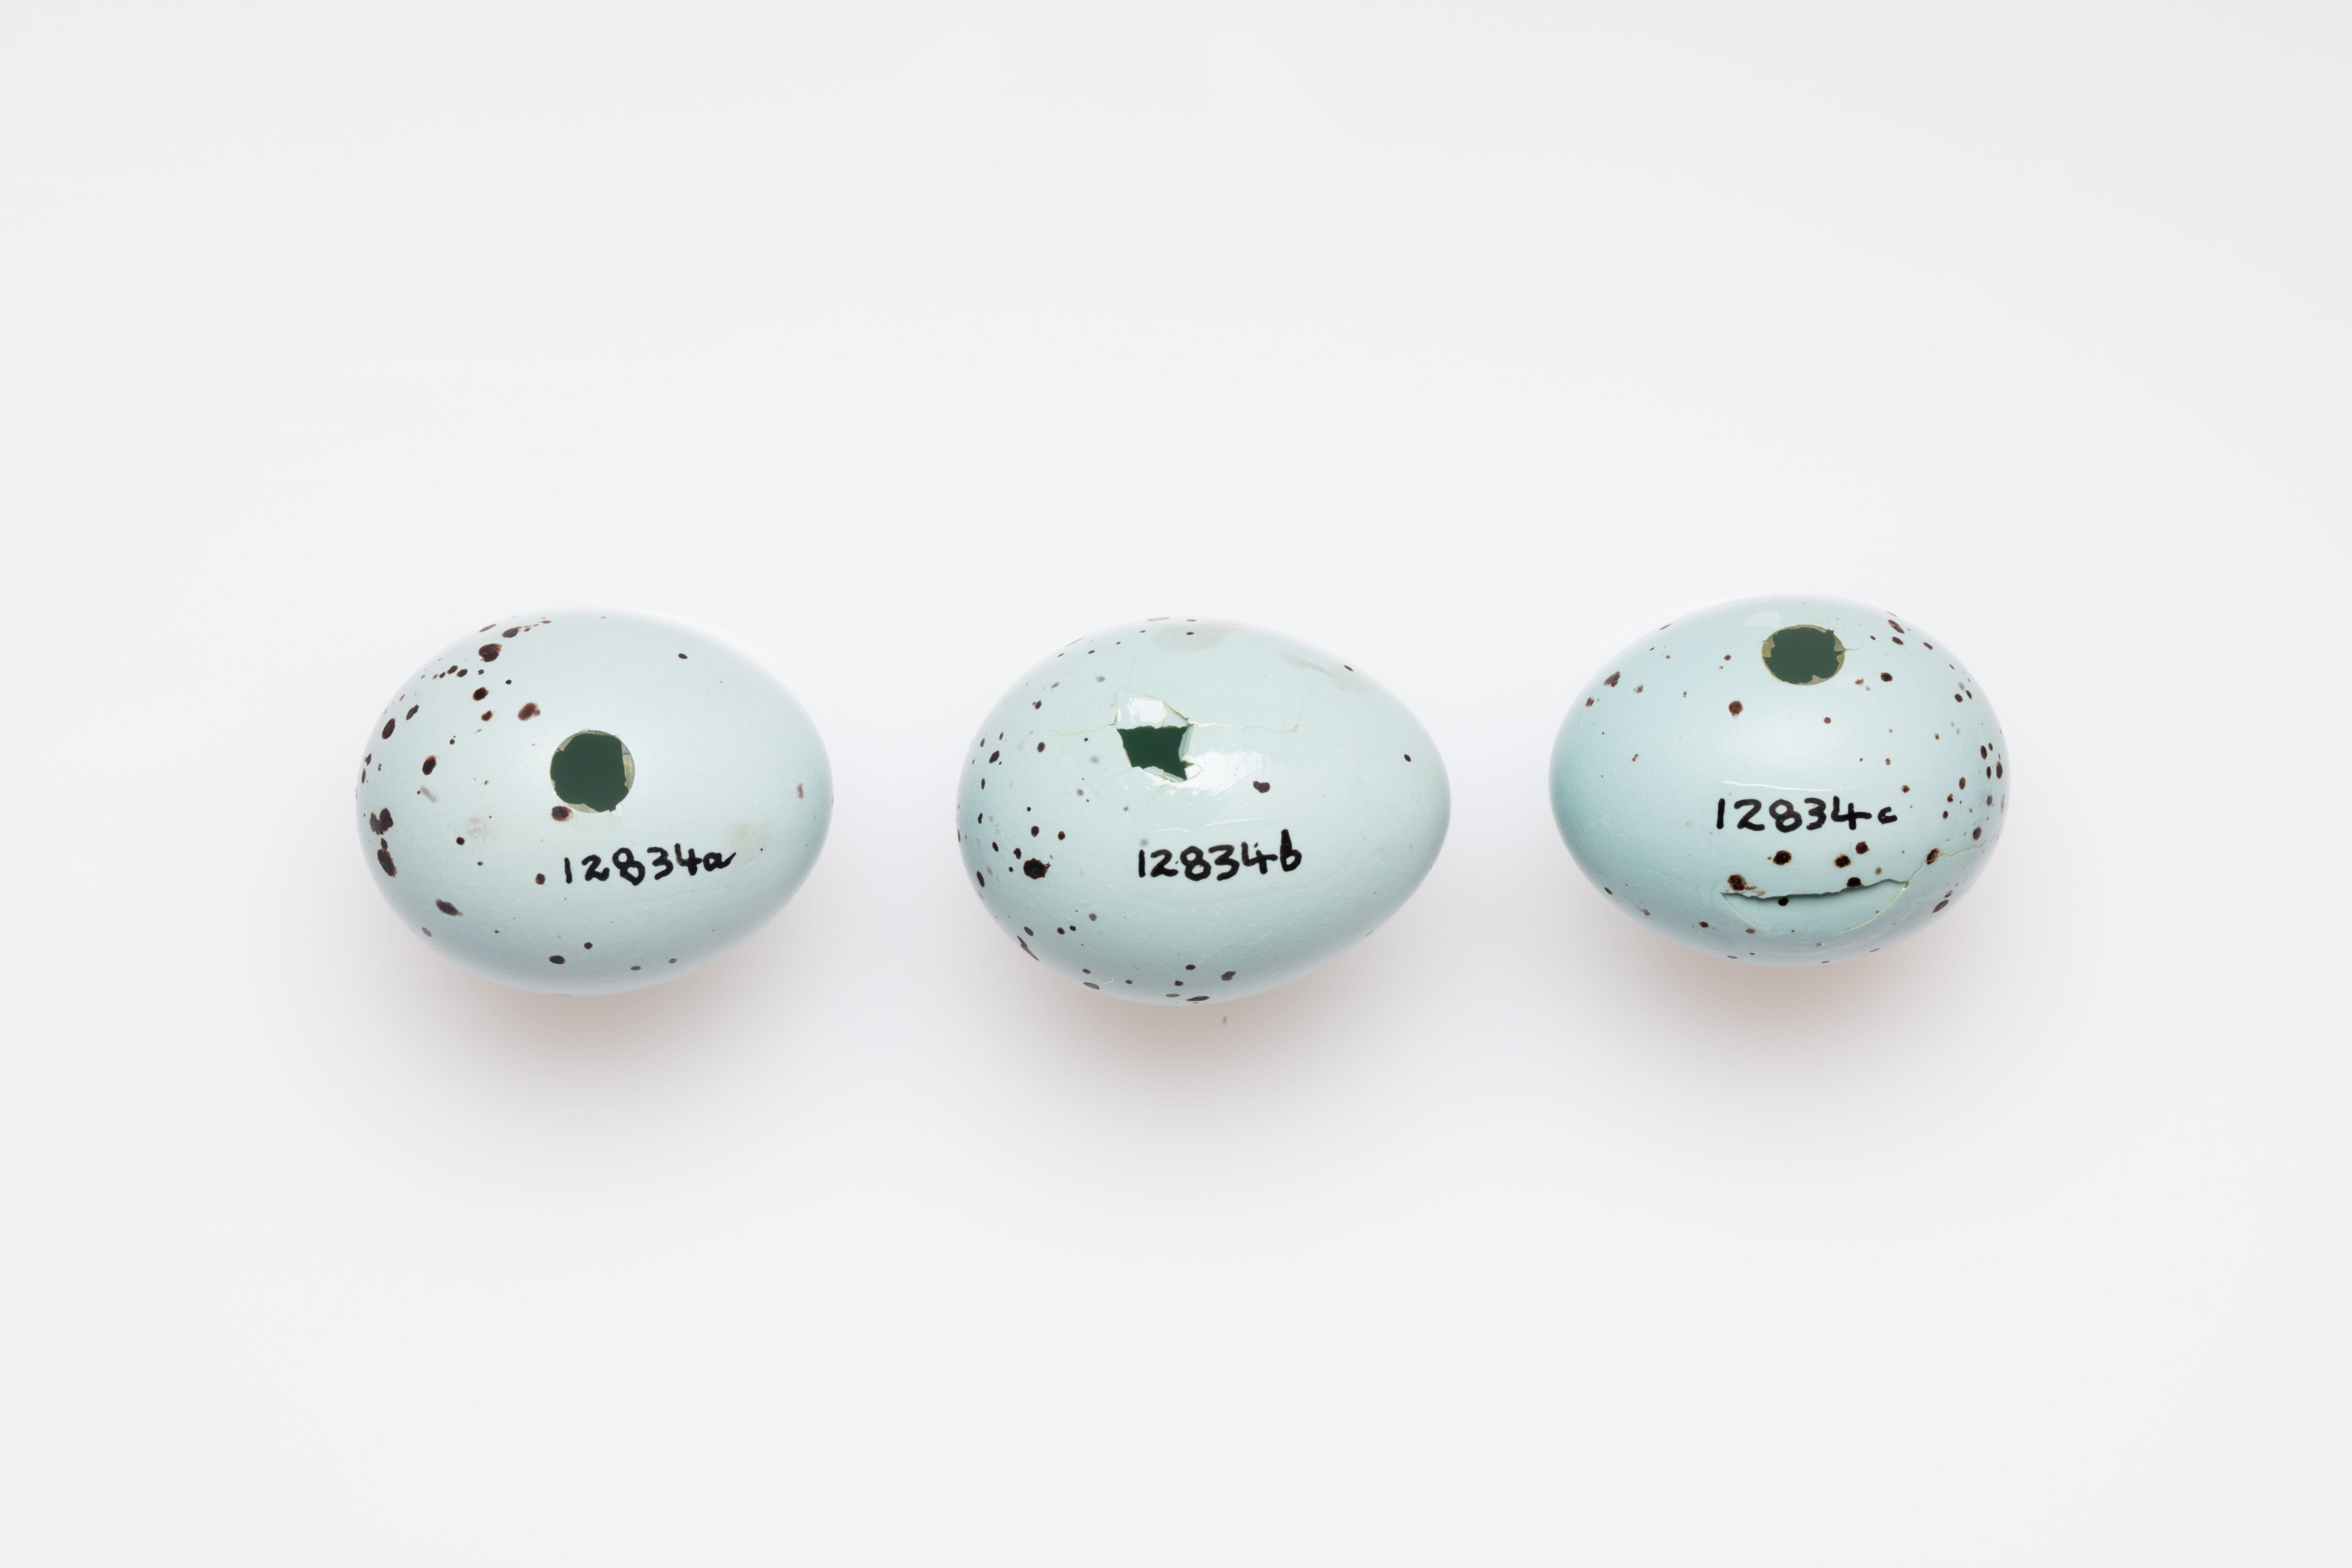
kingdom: Animalia
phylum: Chordata
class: Aves
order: Passeriformes
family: Turdidae
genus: Turdus
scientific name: Turdus philomelos
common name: Song thrush
